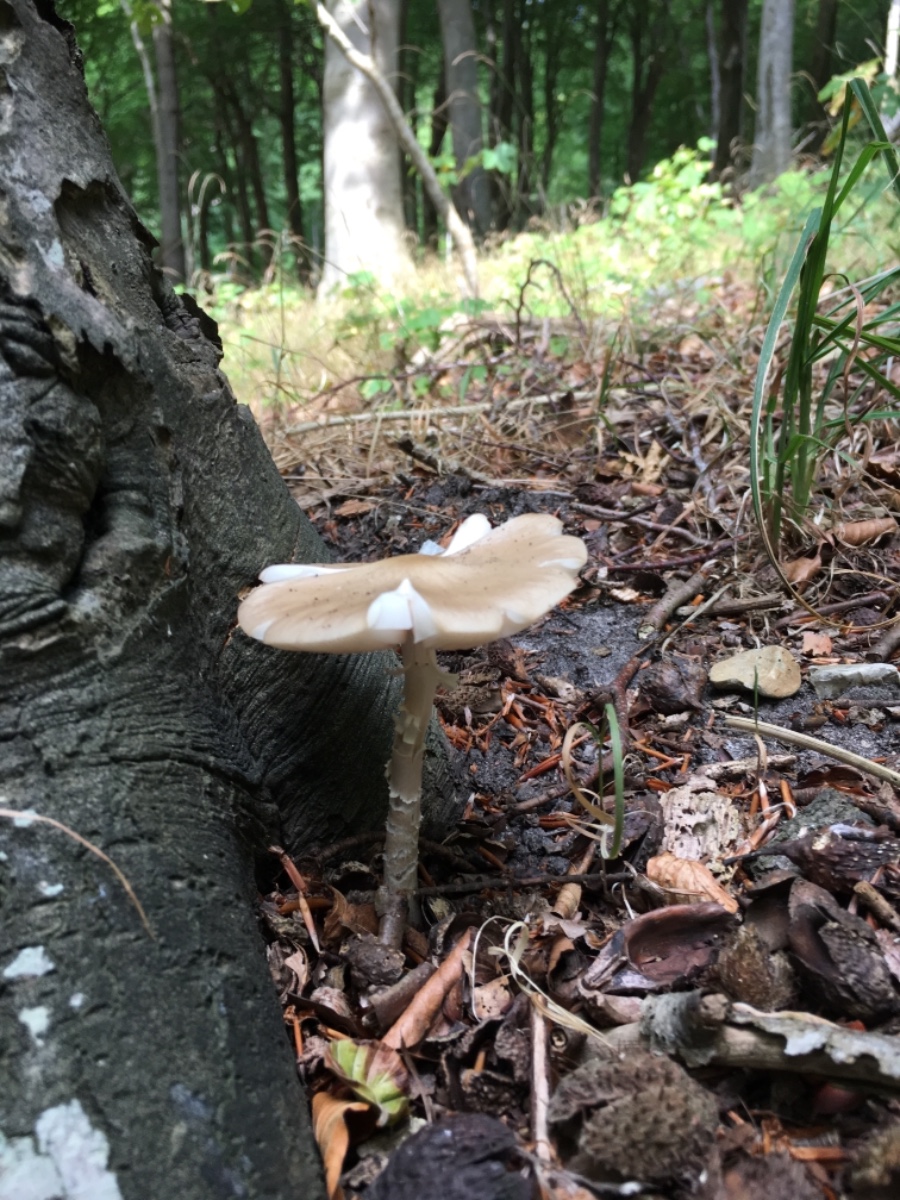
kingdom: Fungi
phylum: Basidiomycota
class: Agaricomycetes
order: Agaricales
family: Physalacriaceae
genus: Hymenopellis
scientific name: Hymenopellis radicata
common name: almindelig pælerodshat
